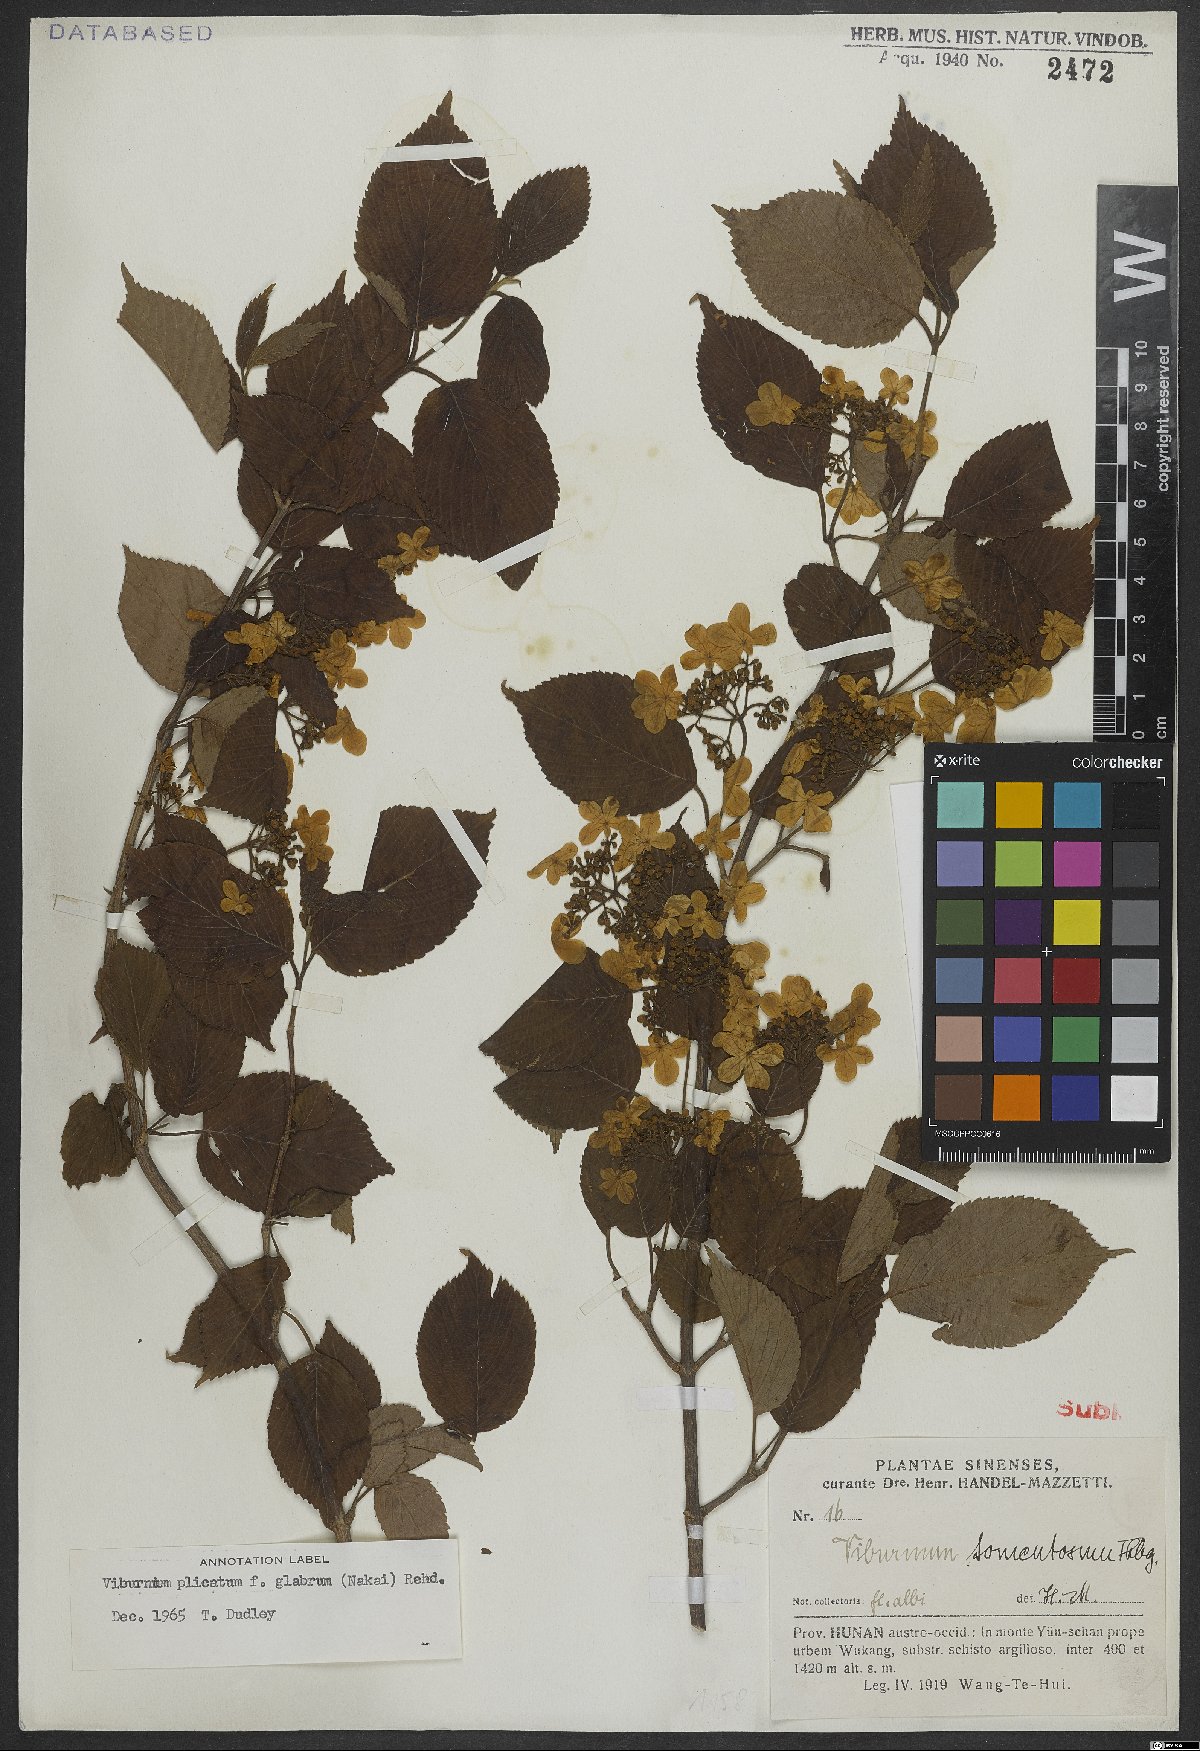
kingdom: Plantae
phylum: Tracheophyta
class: Magnoliopsida
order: Dipsacales
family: Viburnaceae
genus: Viburnum
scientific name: Viburnum
